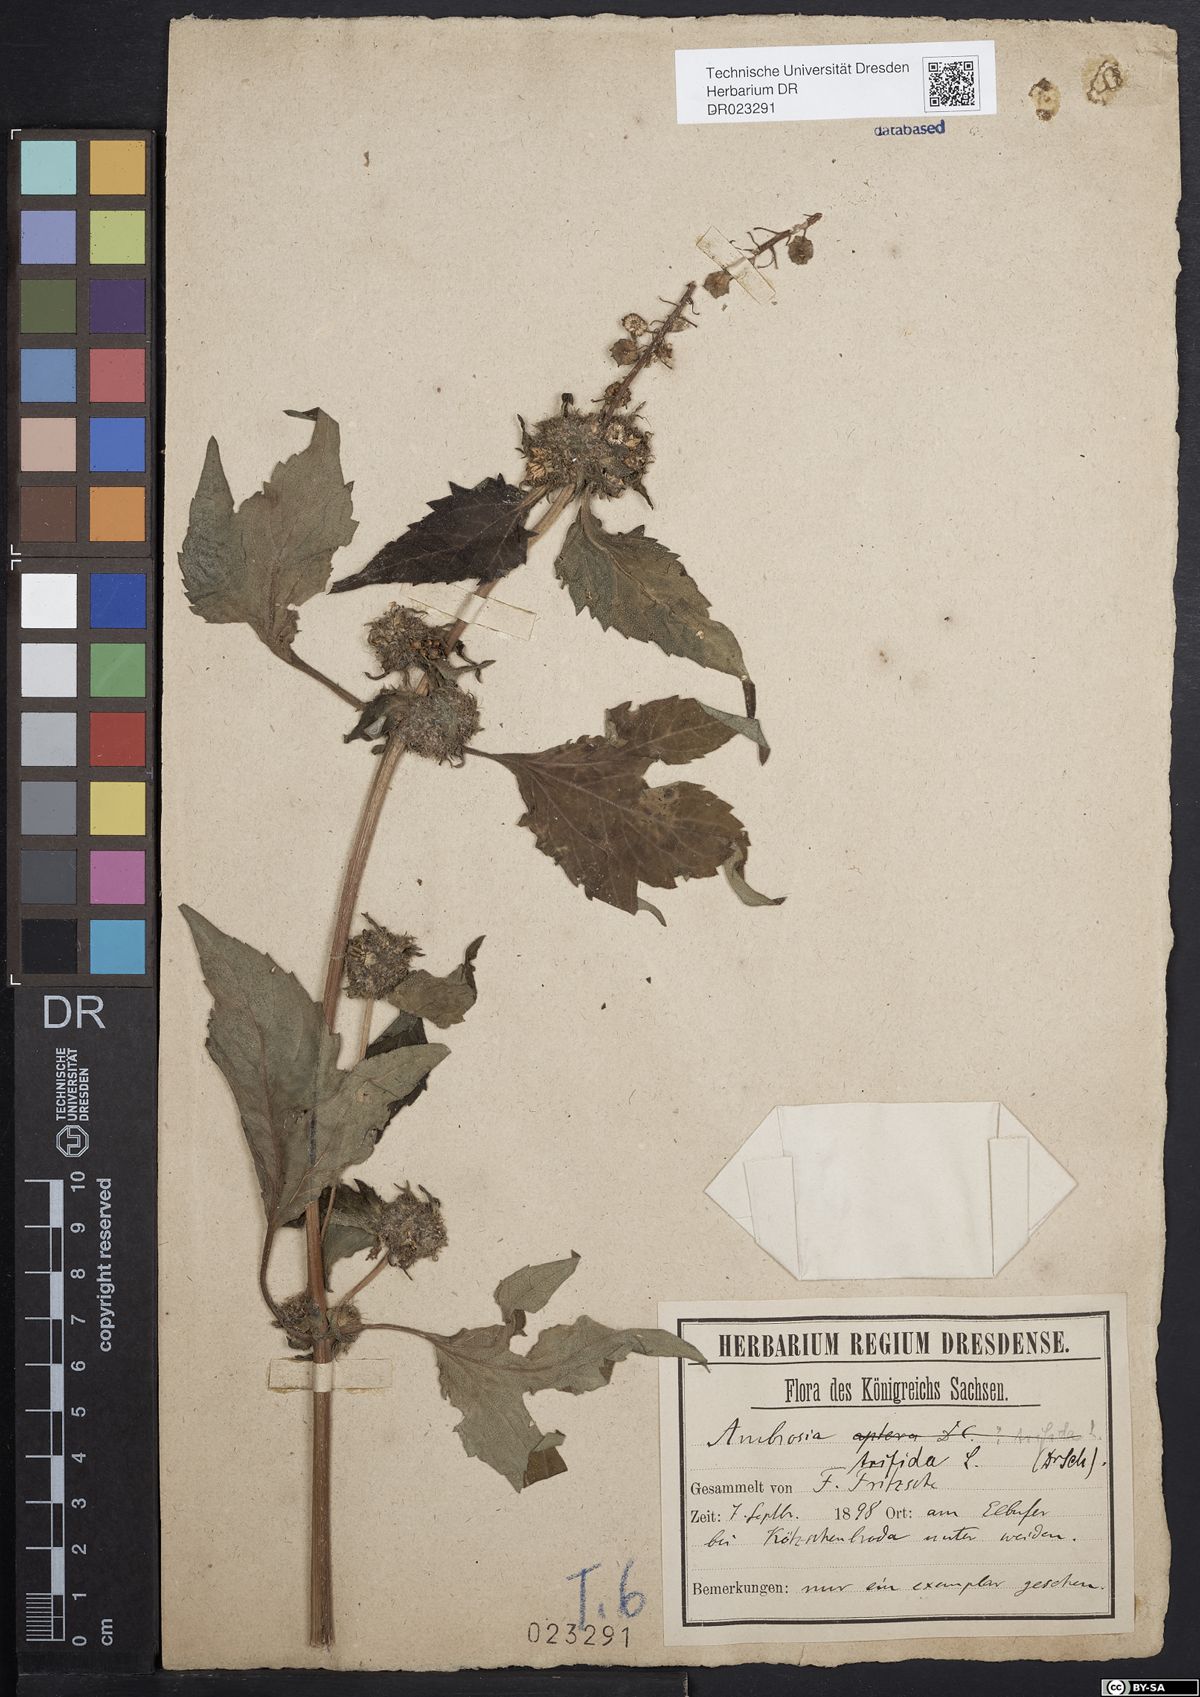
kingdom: Plantae
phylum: Tracheophyta
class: Magnoliopsida
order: Asterales
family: Asteraceae
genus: Ambrosia
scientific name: Ambrosia trifida
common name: Giant ragweed
